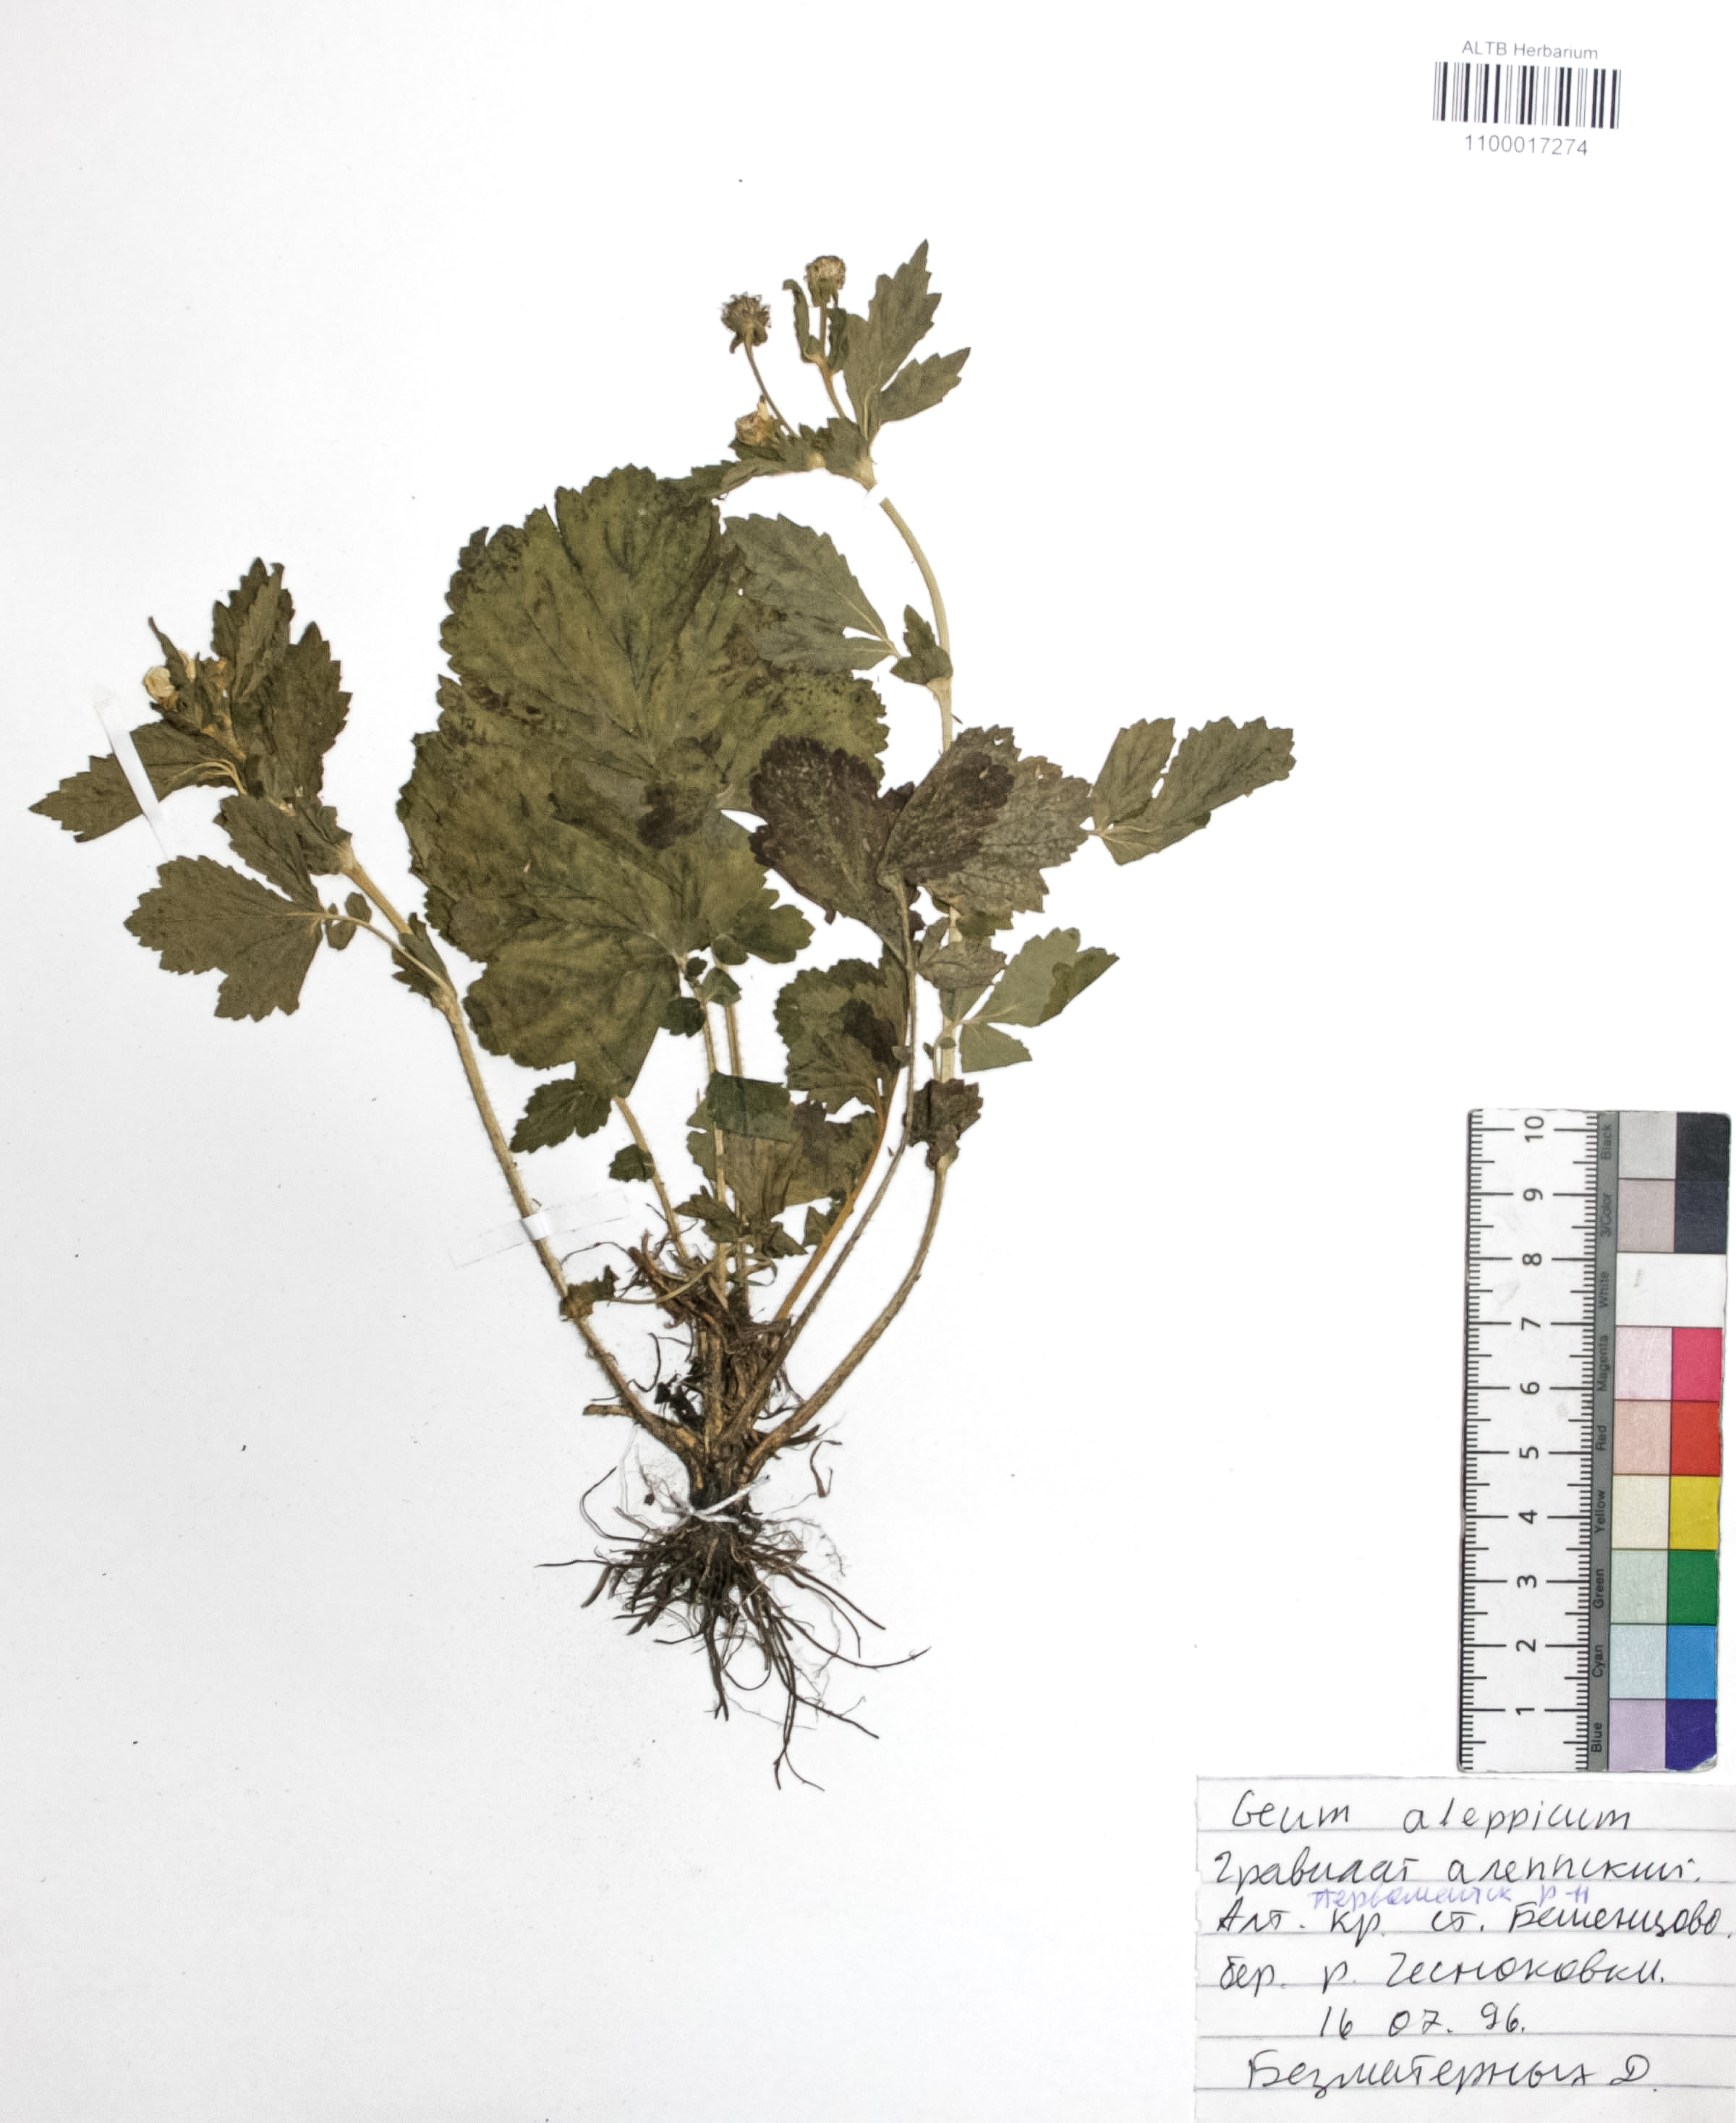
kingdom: Plantae
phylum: Tracheophyta
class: Magnoliopsida
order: Rosales
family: Rosaceae
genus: Geum
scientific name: Geum aleppicum
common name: Yellow avens
